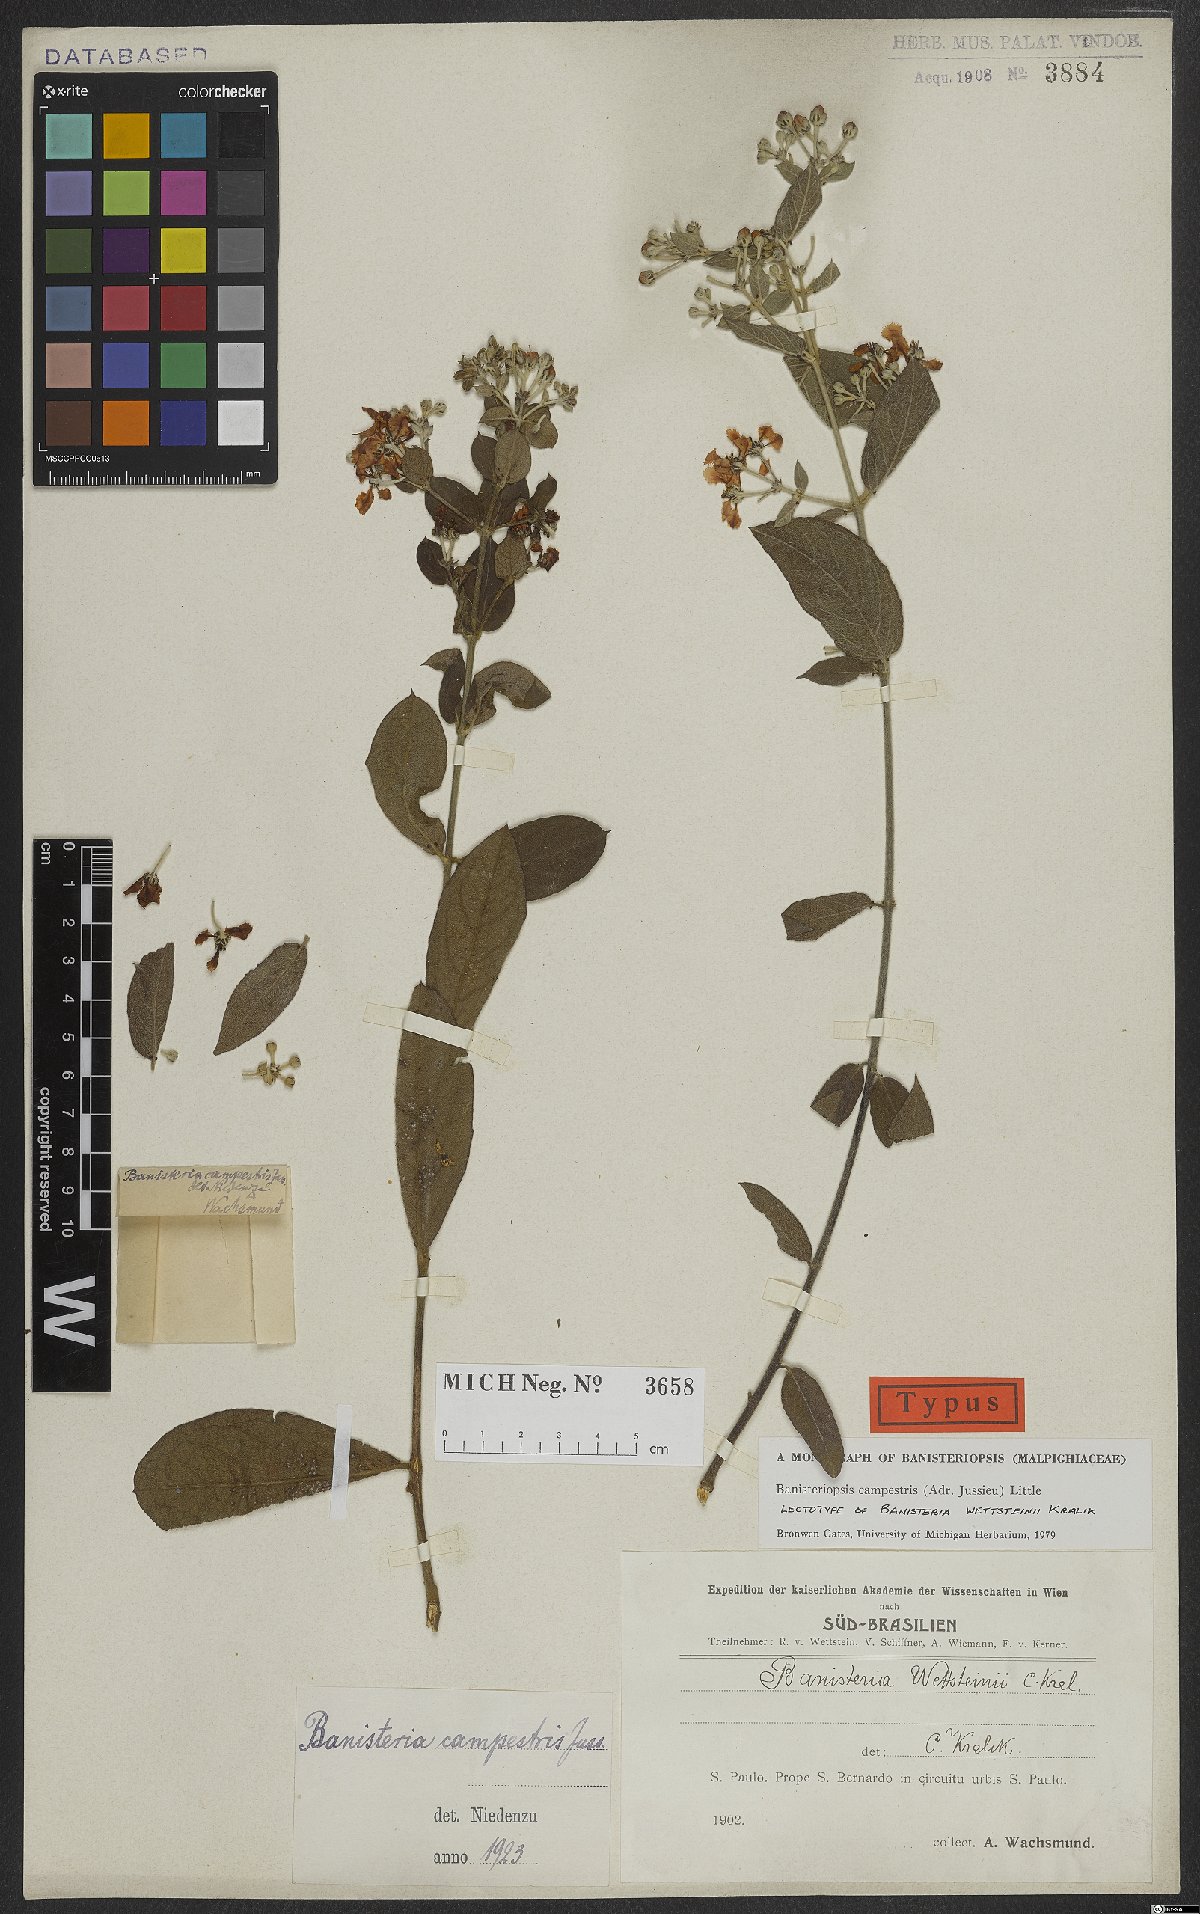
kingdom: Plantae
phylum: Tracheophyta
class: Magnoliopsida
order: Malpighiales
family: Malpighiaceae
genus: Banisteriopsis
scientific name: Banisteriopsis campestris
